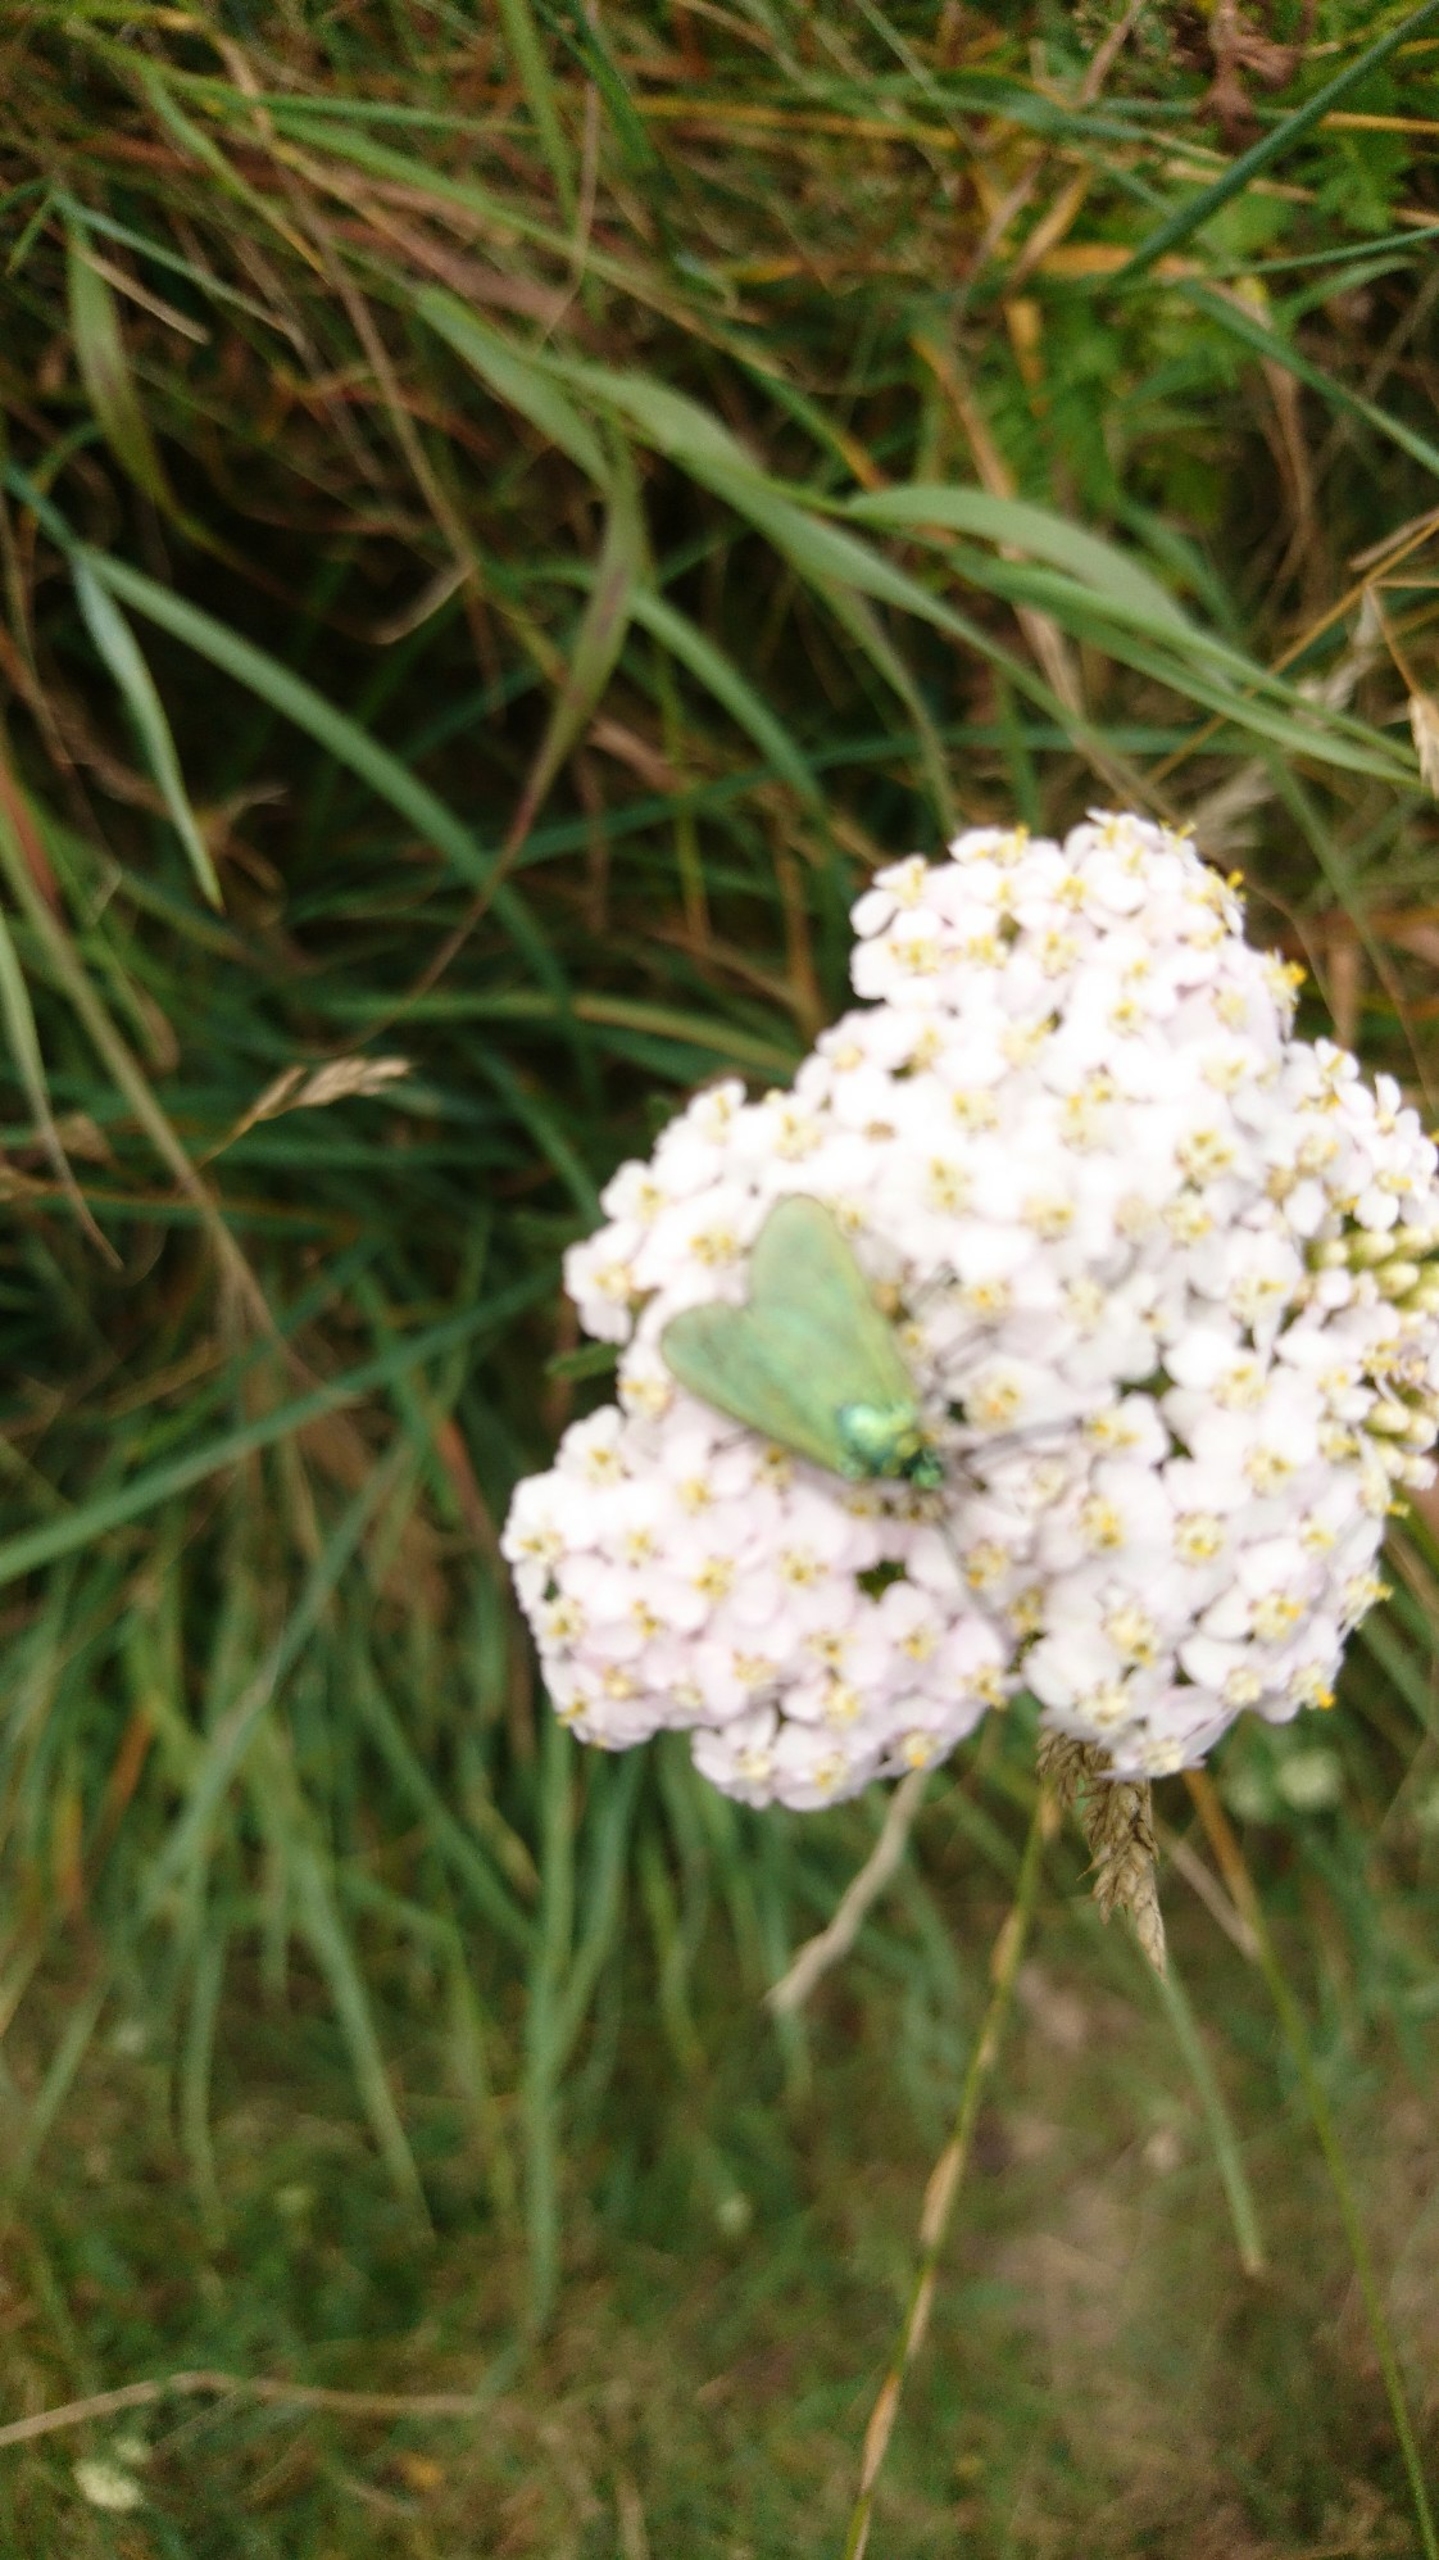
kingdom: Animalia
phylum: Arthropoda
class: Insecta
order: Lepidoptera
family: Zygaenidae
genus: Adscita
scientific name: Adscita statices
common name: Metalvinge
